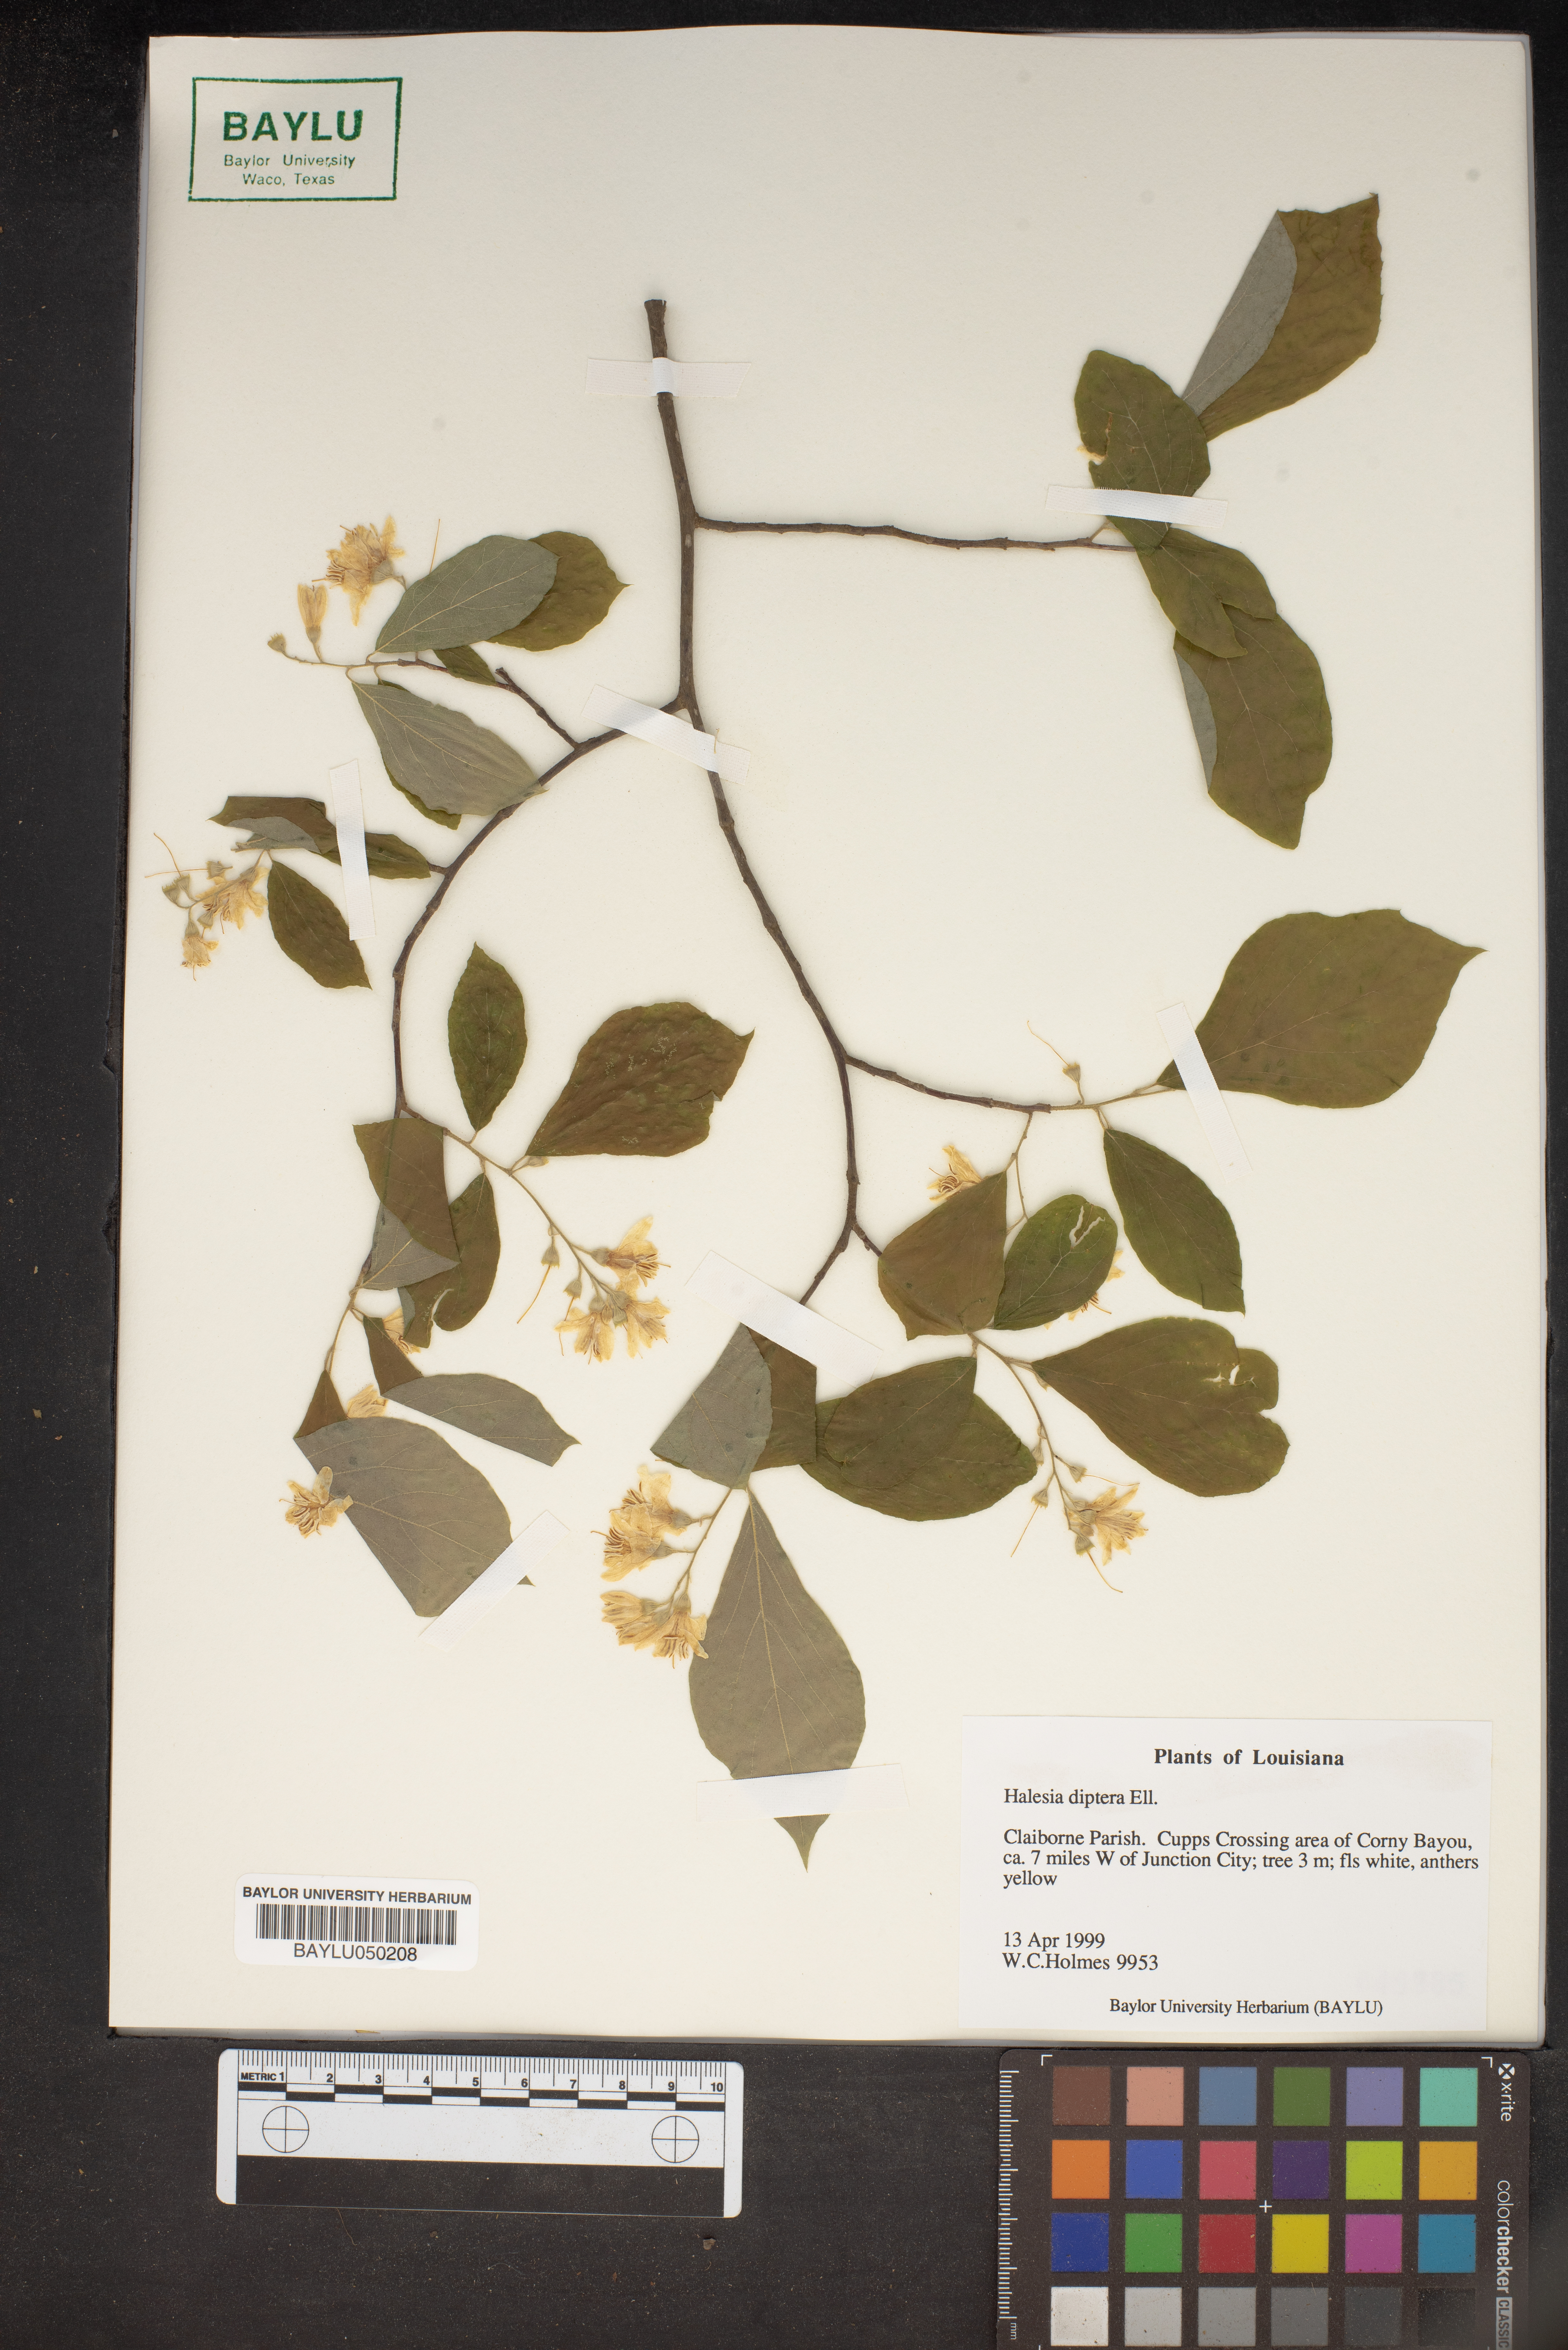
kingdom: Plantae
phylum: Tracheophyta
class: Magnoliopsida
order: Ericales
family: Styracaceae
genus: Halesia
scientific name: Halesia diptera
